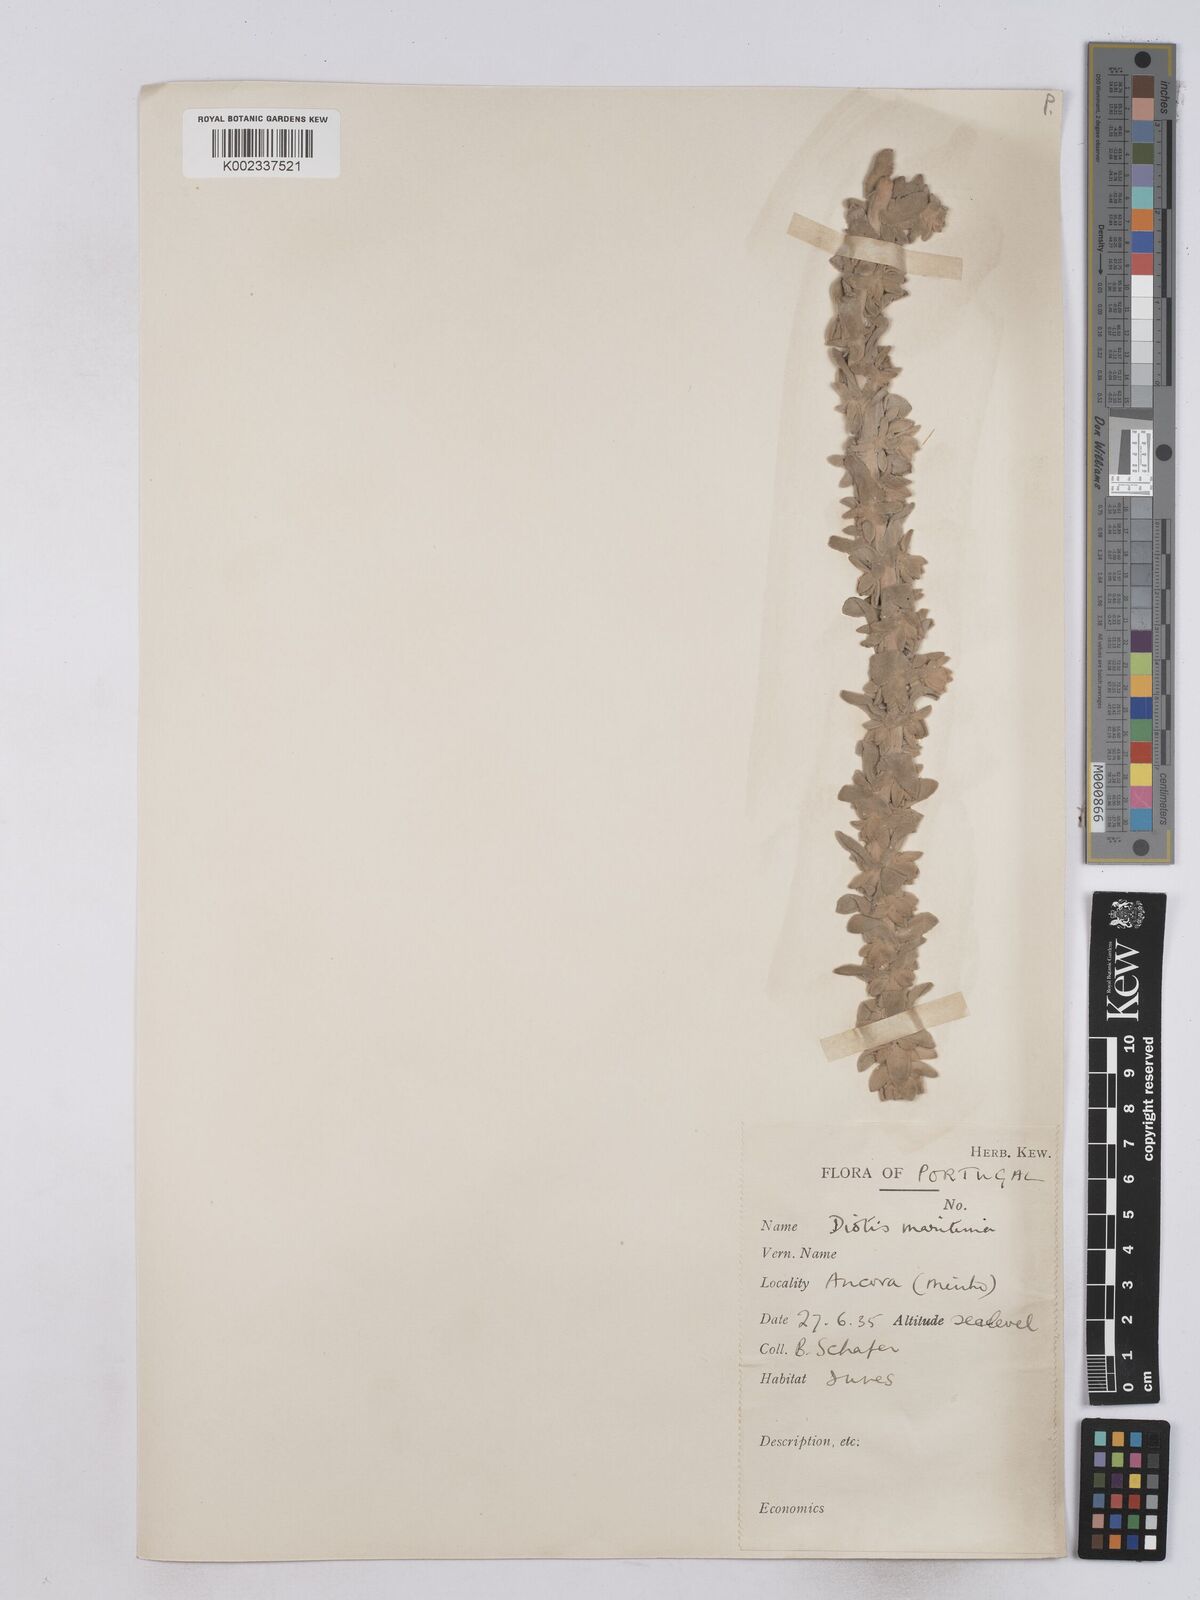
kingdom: Plantae
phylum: Tracheophyta
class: Magnoliopsida
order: Asterales
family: Asteraceae
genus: Achillea
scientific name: Achillea maritima
